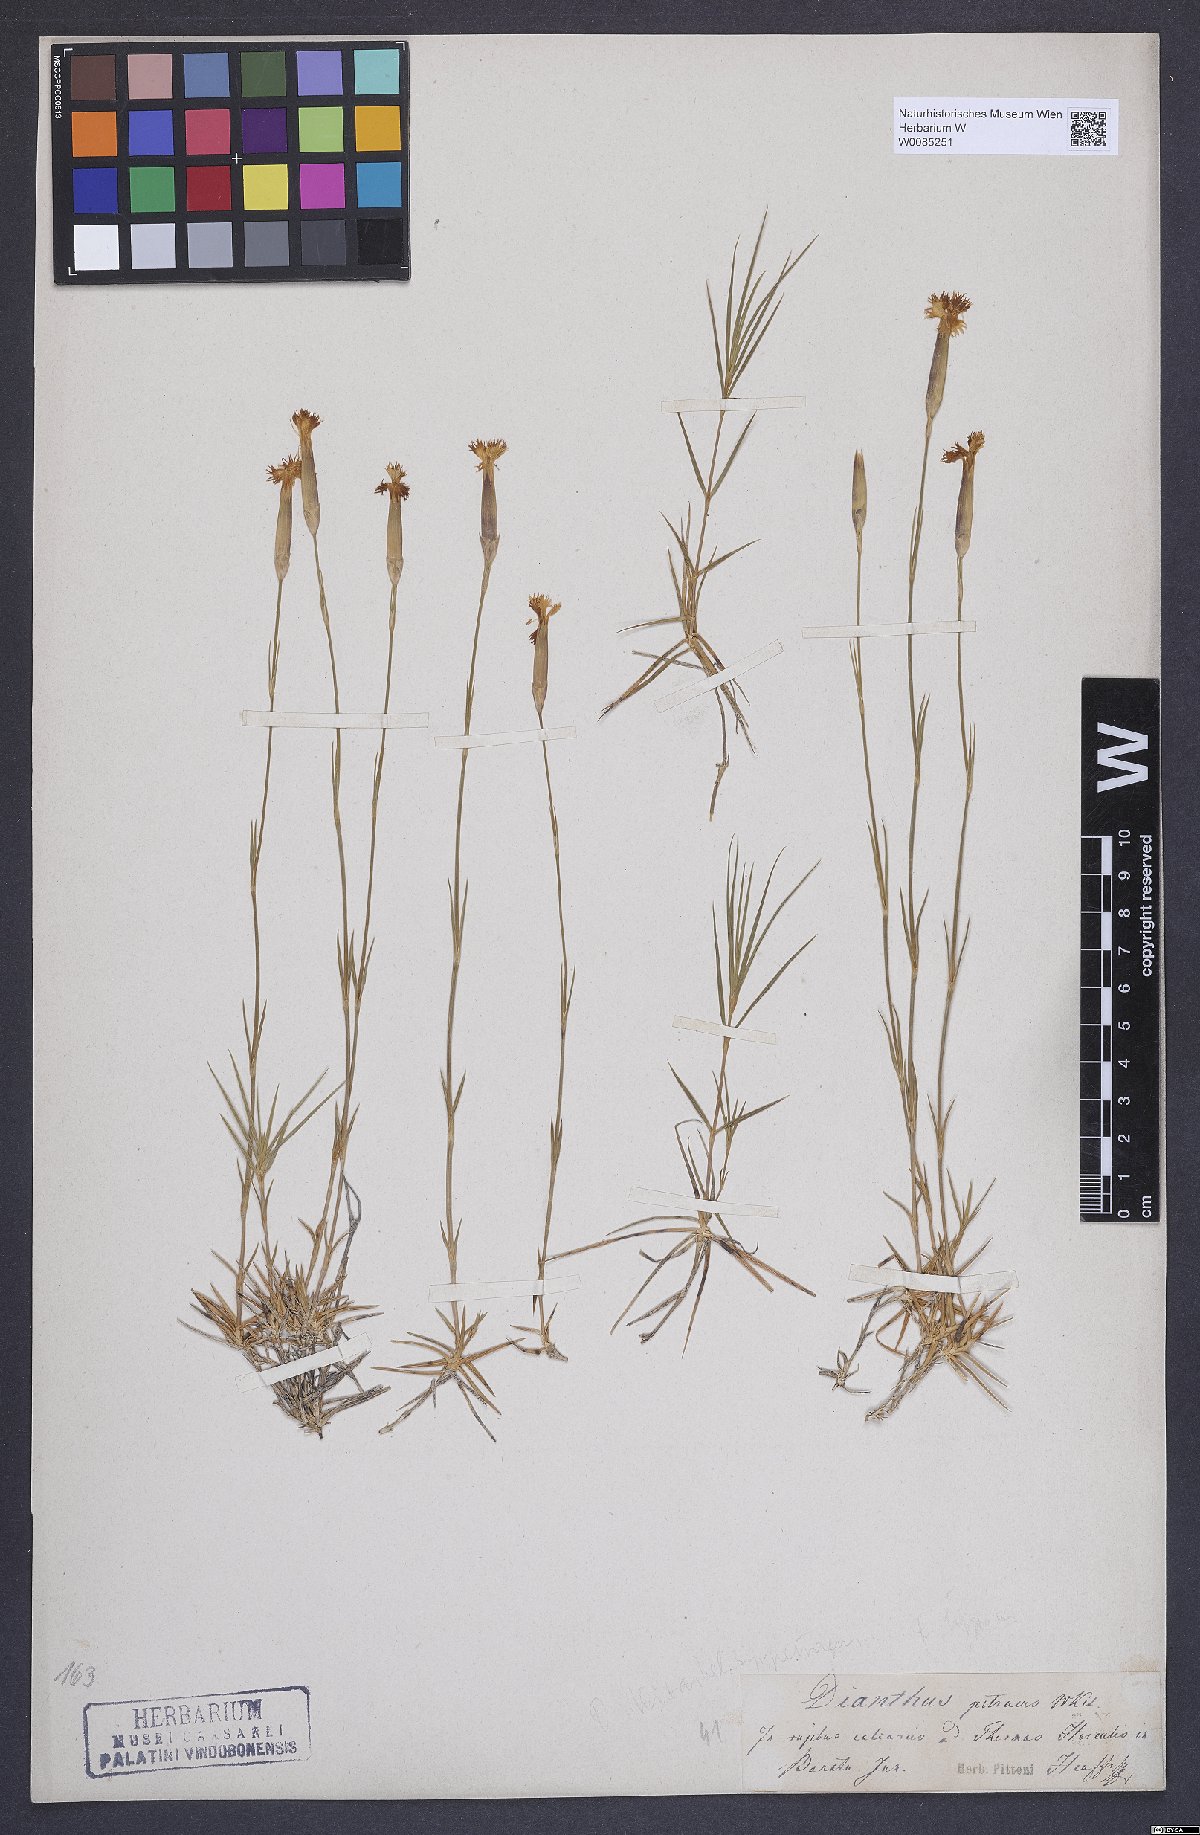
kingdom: Plantae
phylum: Tracheophyta
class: Magnoliopsida
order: Caryophyllales
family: Caryophyllaceae
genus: Dianthus
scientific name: Dianthus petraeus
